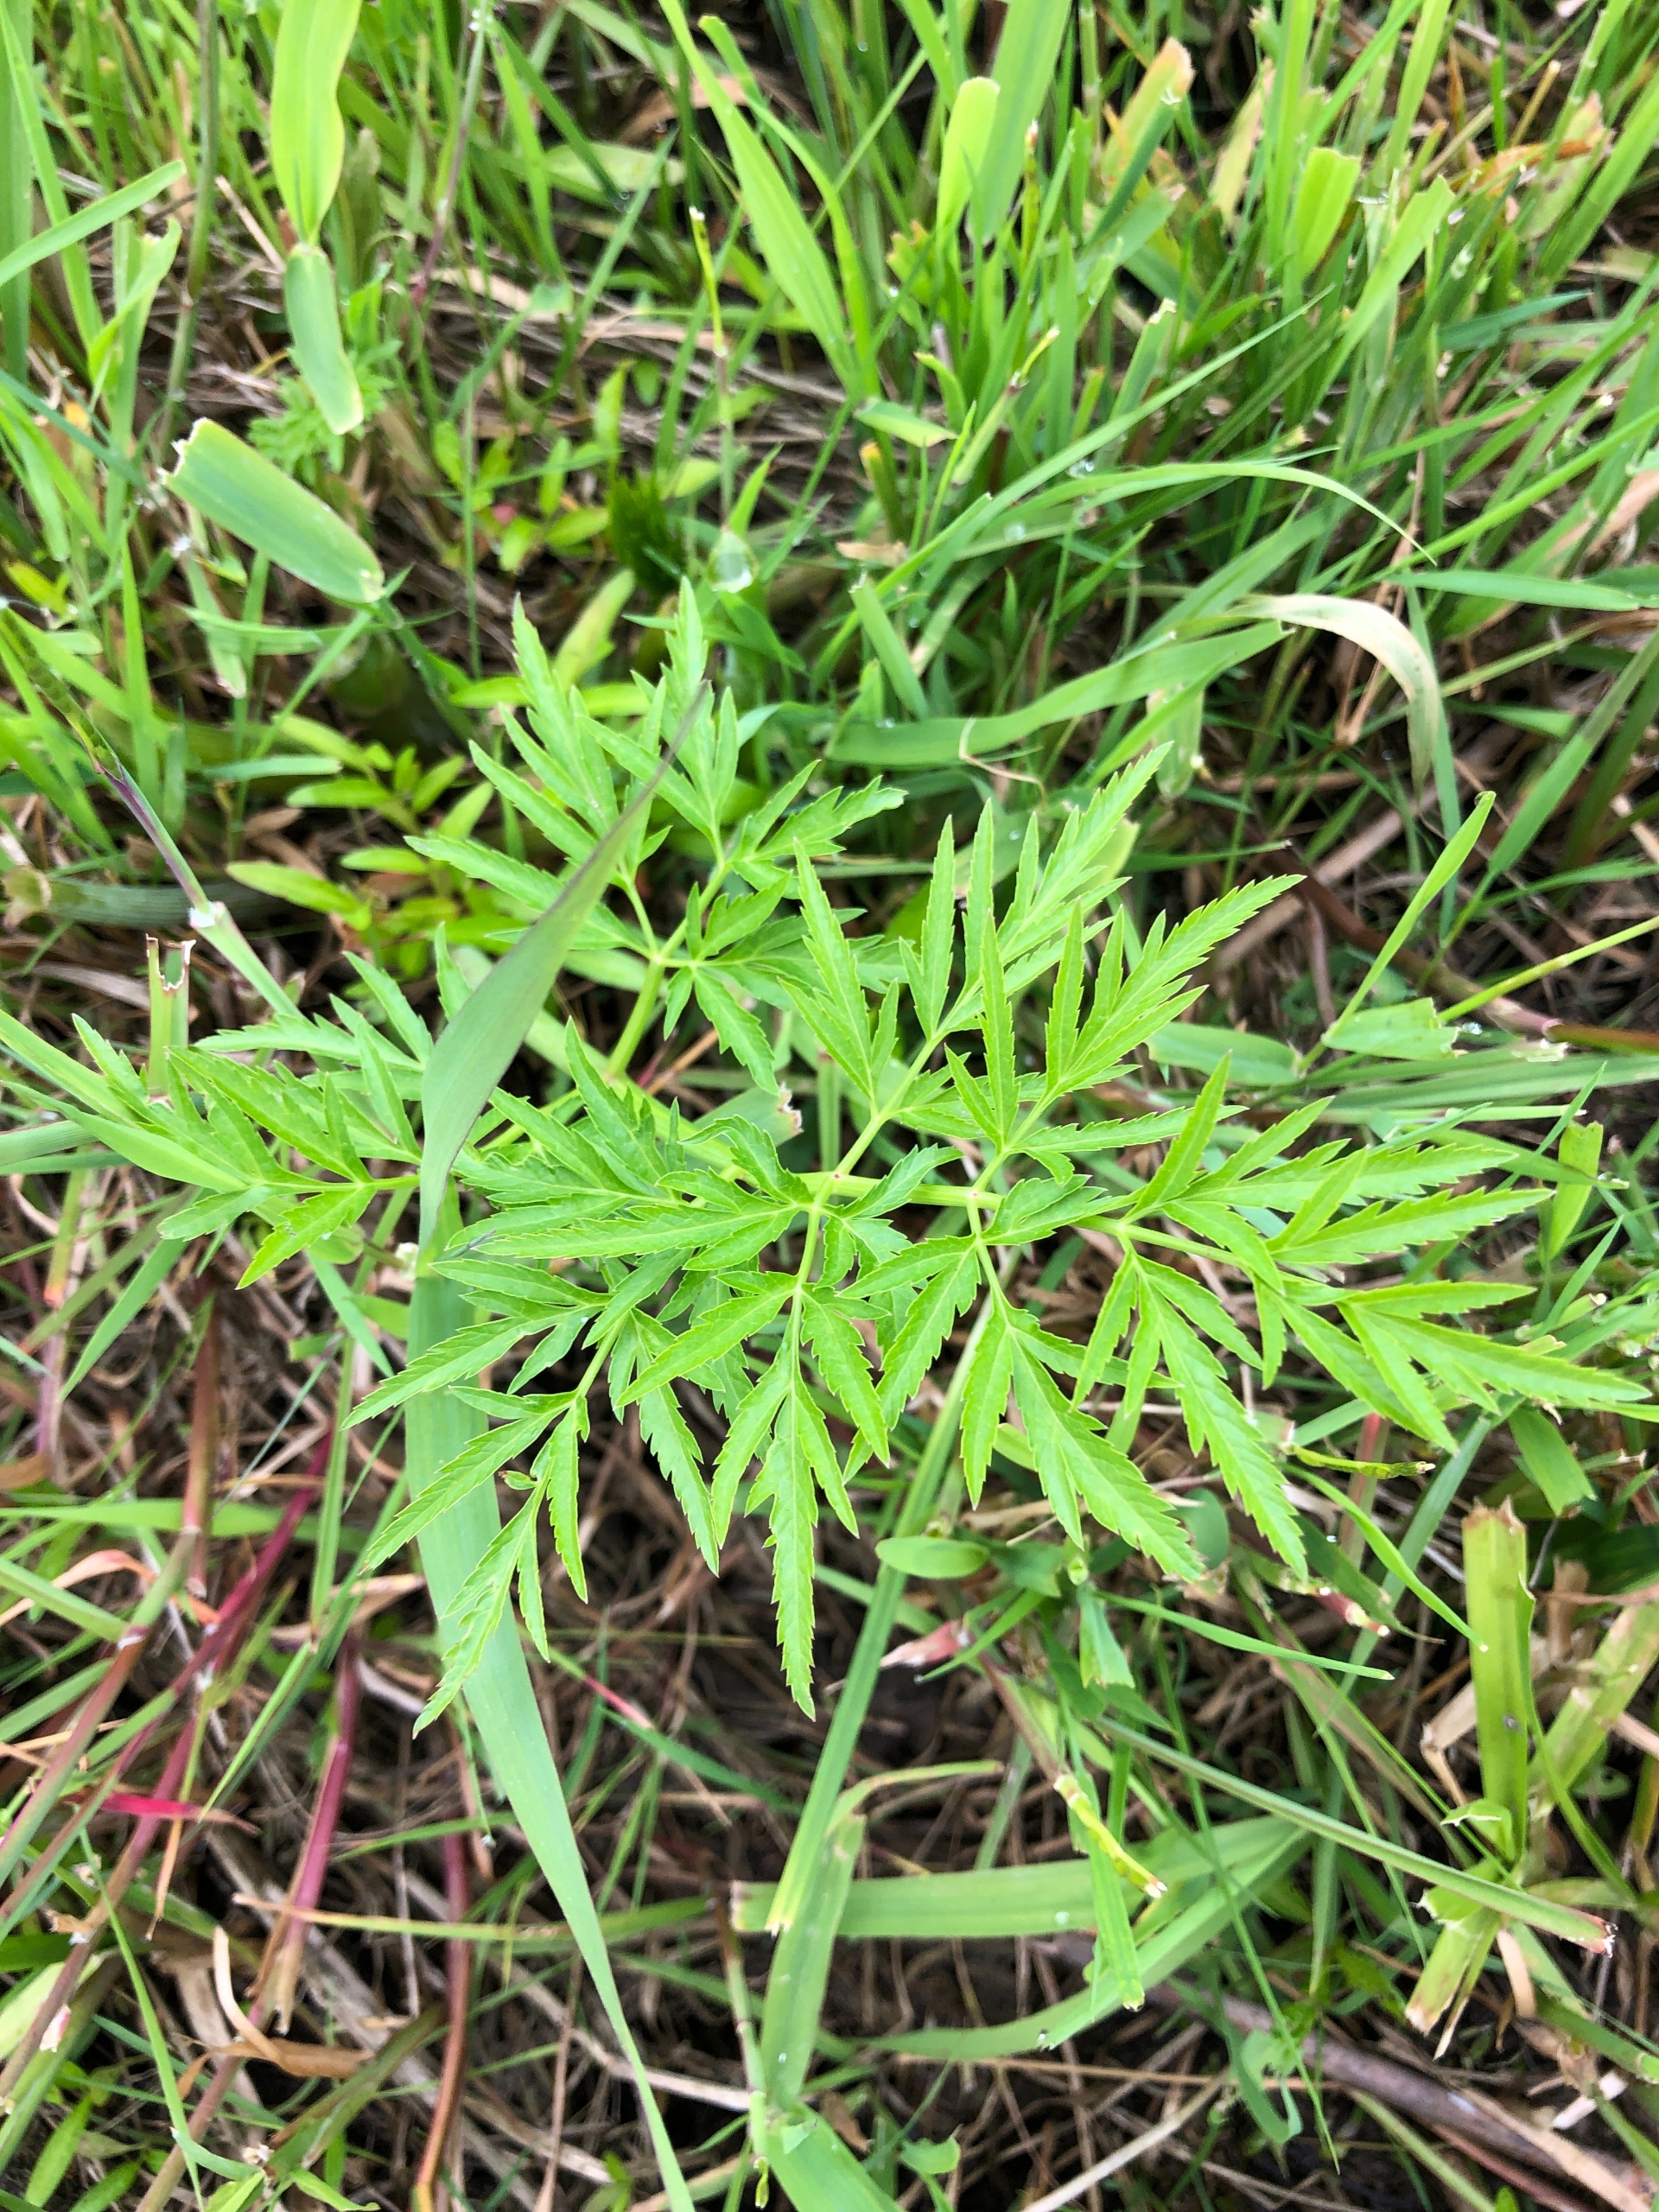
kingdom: Plantae
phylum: Tracheophyta
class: Magnoliopsida
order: Apiales
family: Apiaceae
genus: Cicuta
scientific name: Cicuta virosa
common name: Gifttyde
